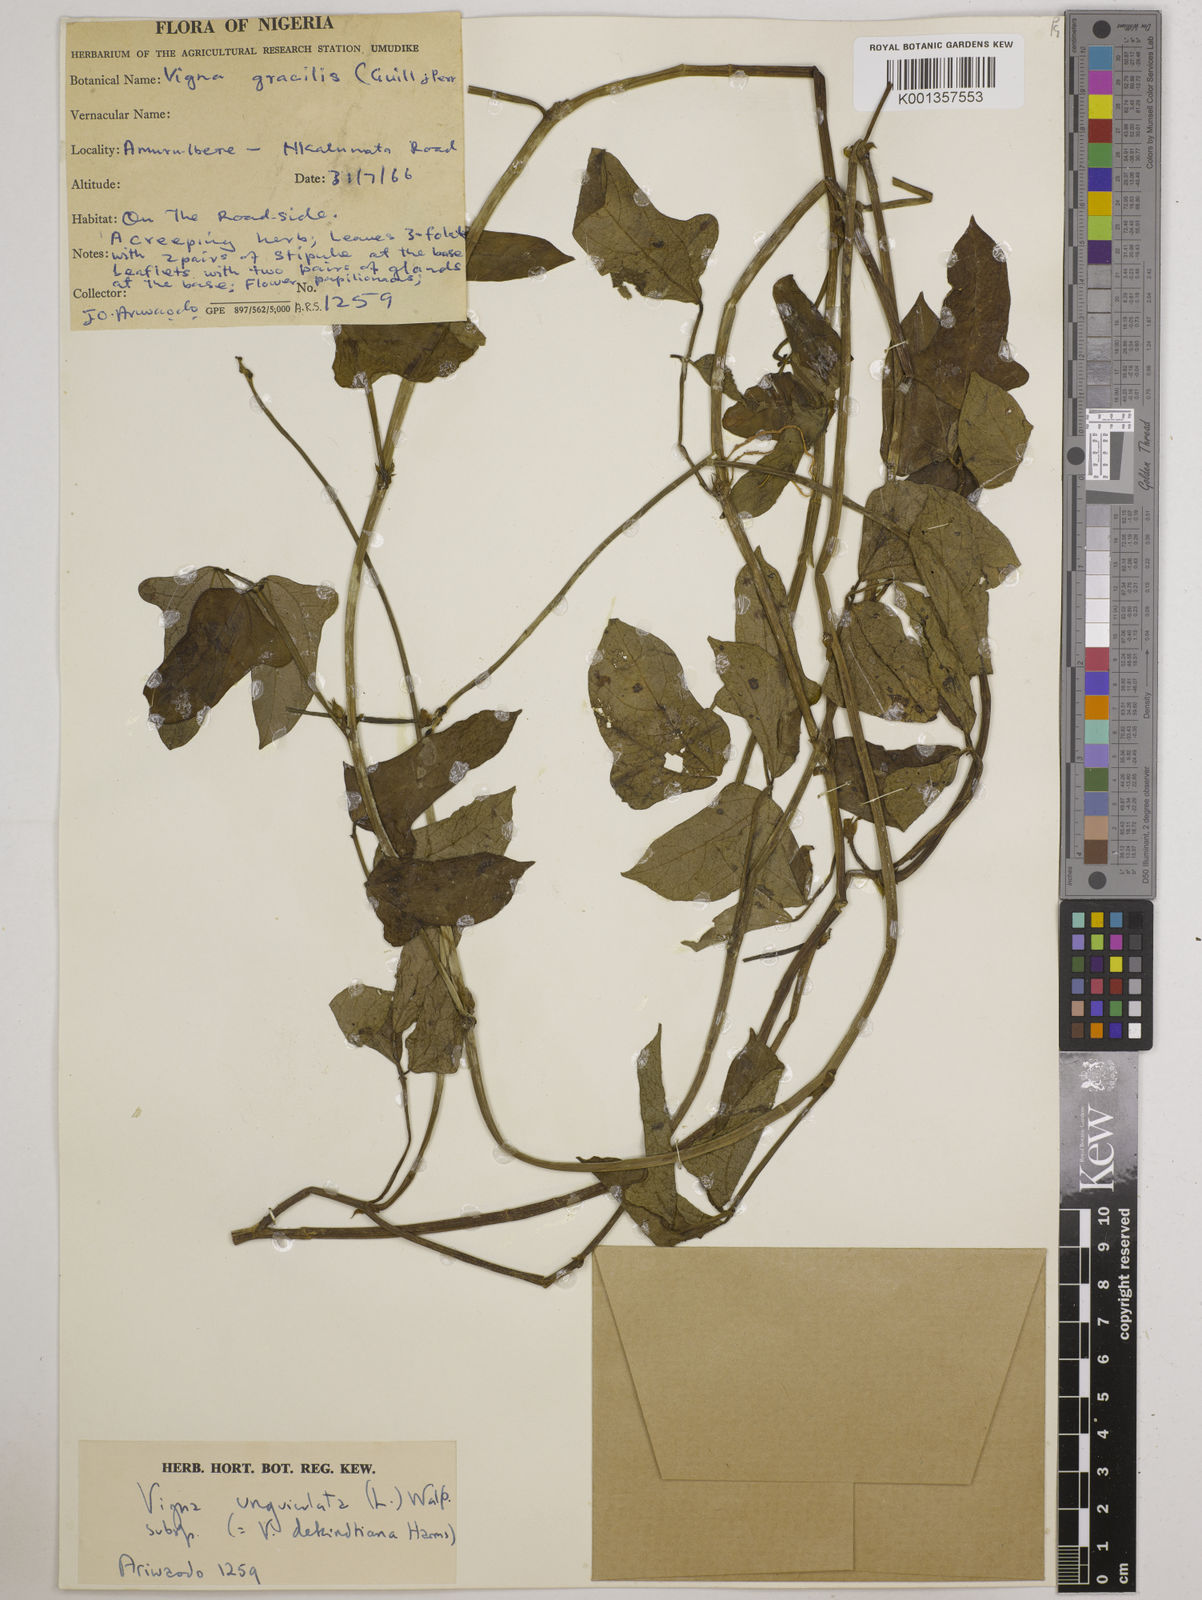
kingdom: Plantae
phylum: Tracheophyta
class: Magnoliopsida
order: Fabales
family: Fabaceae
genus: Vigna
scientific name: Vigna
